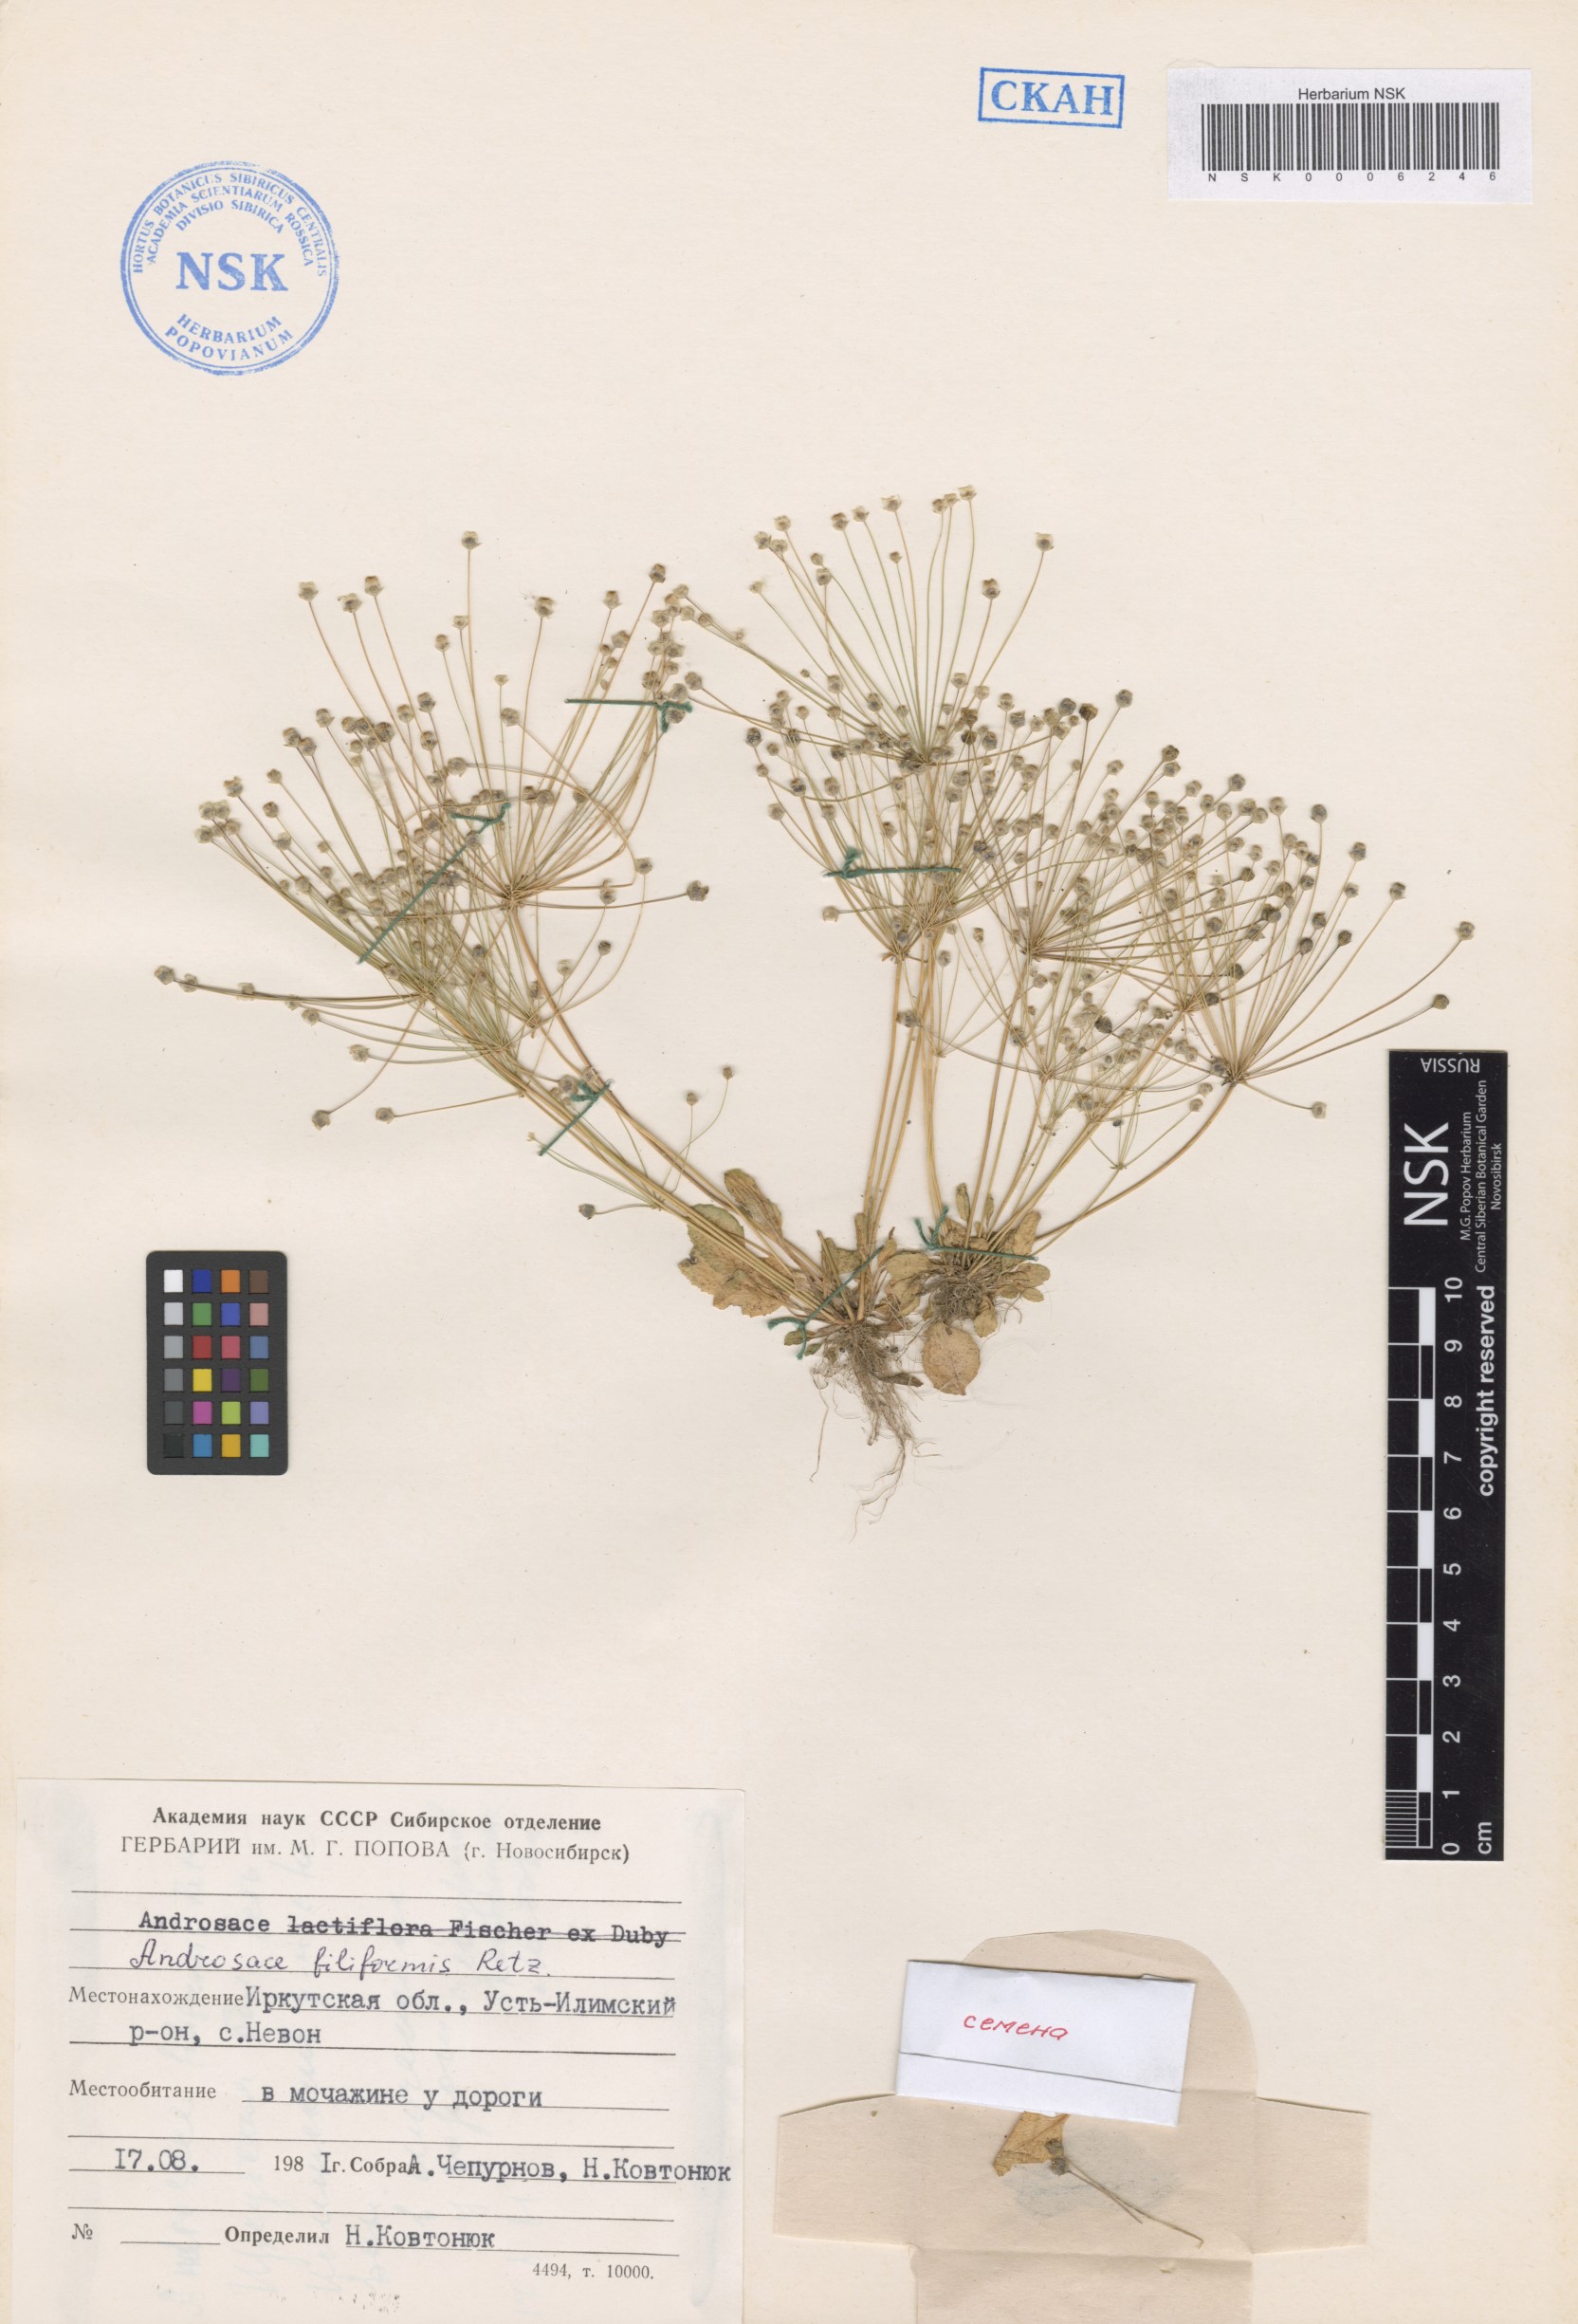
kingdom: Plantae
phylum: Tracheophyta
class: Magnoliopsida
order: Ericales
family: Primulaceae
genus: Androsace
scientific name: Androsace filiformis
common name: Filiform rock jasmine
